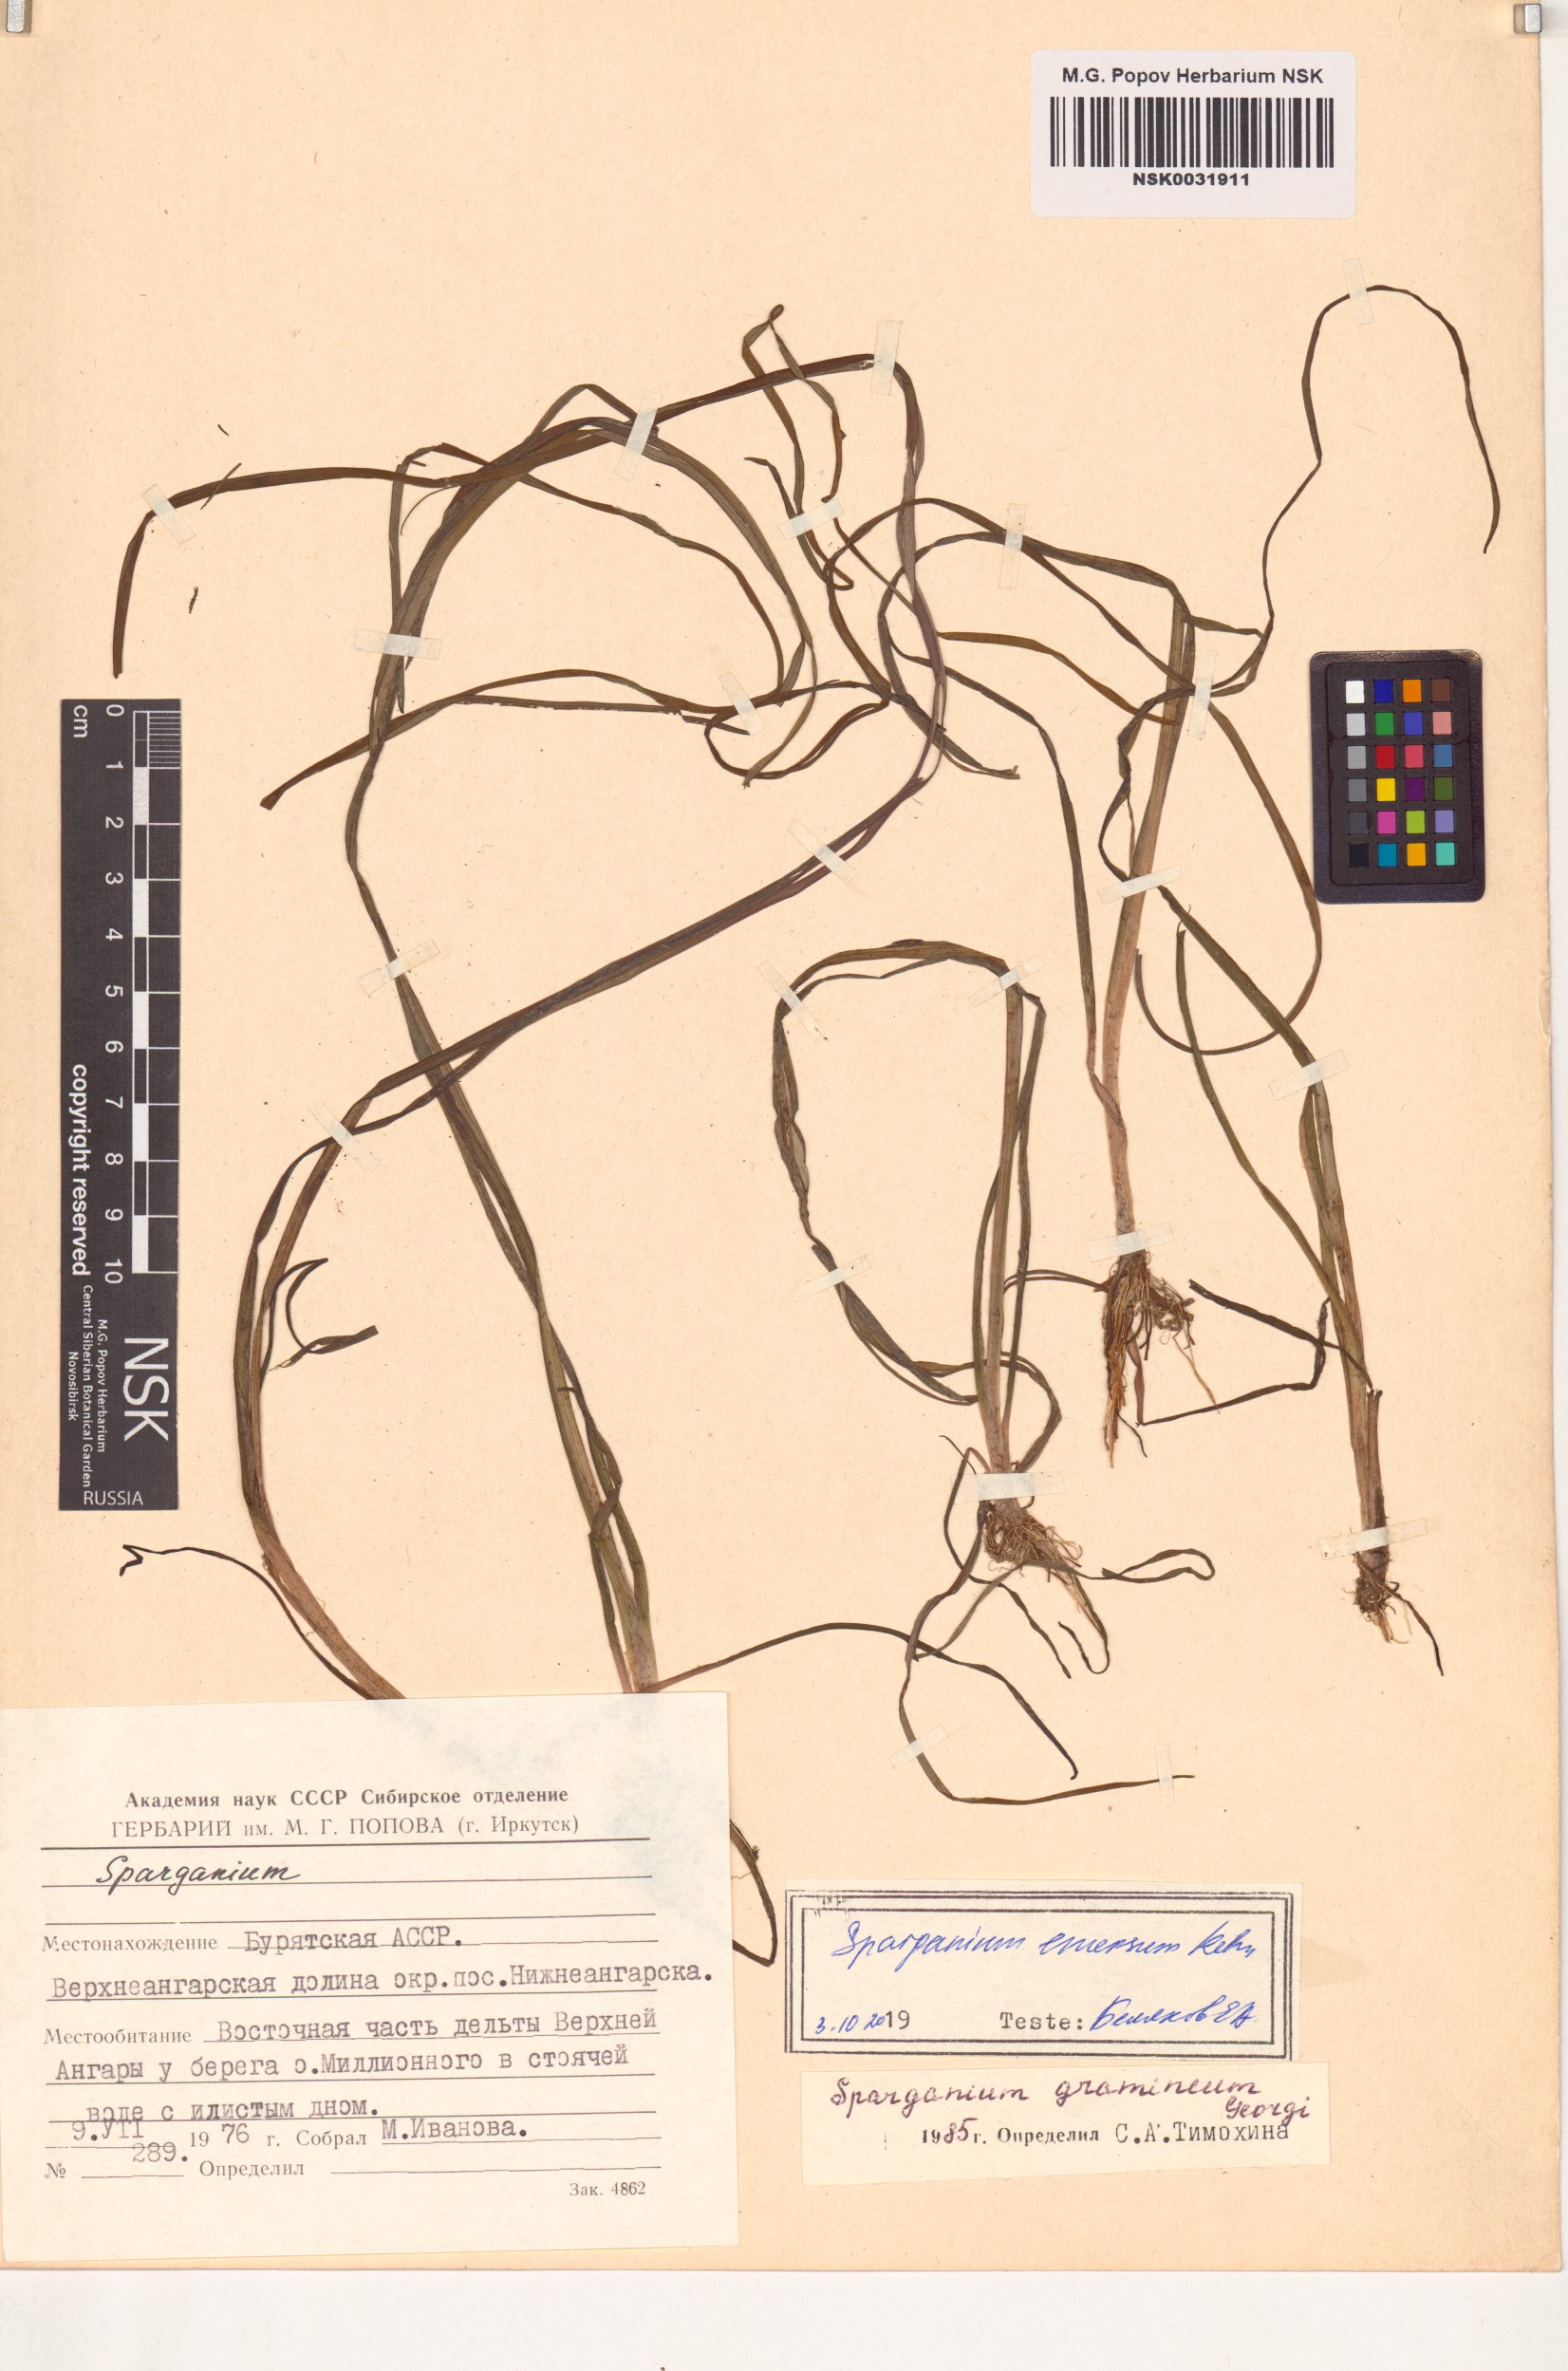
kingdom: Plantae
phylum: Tracheophyta
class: Liliopsida
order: Poales
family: Typhaceae
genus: Sparganium
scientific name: Sparganium emersum
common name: Unbranched bur-reed
